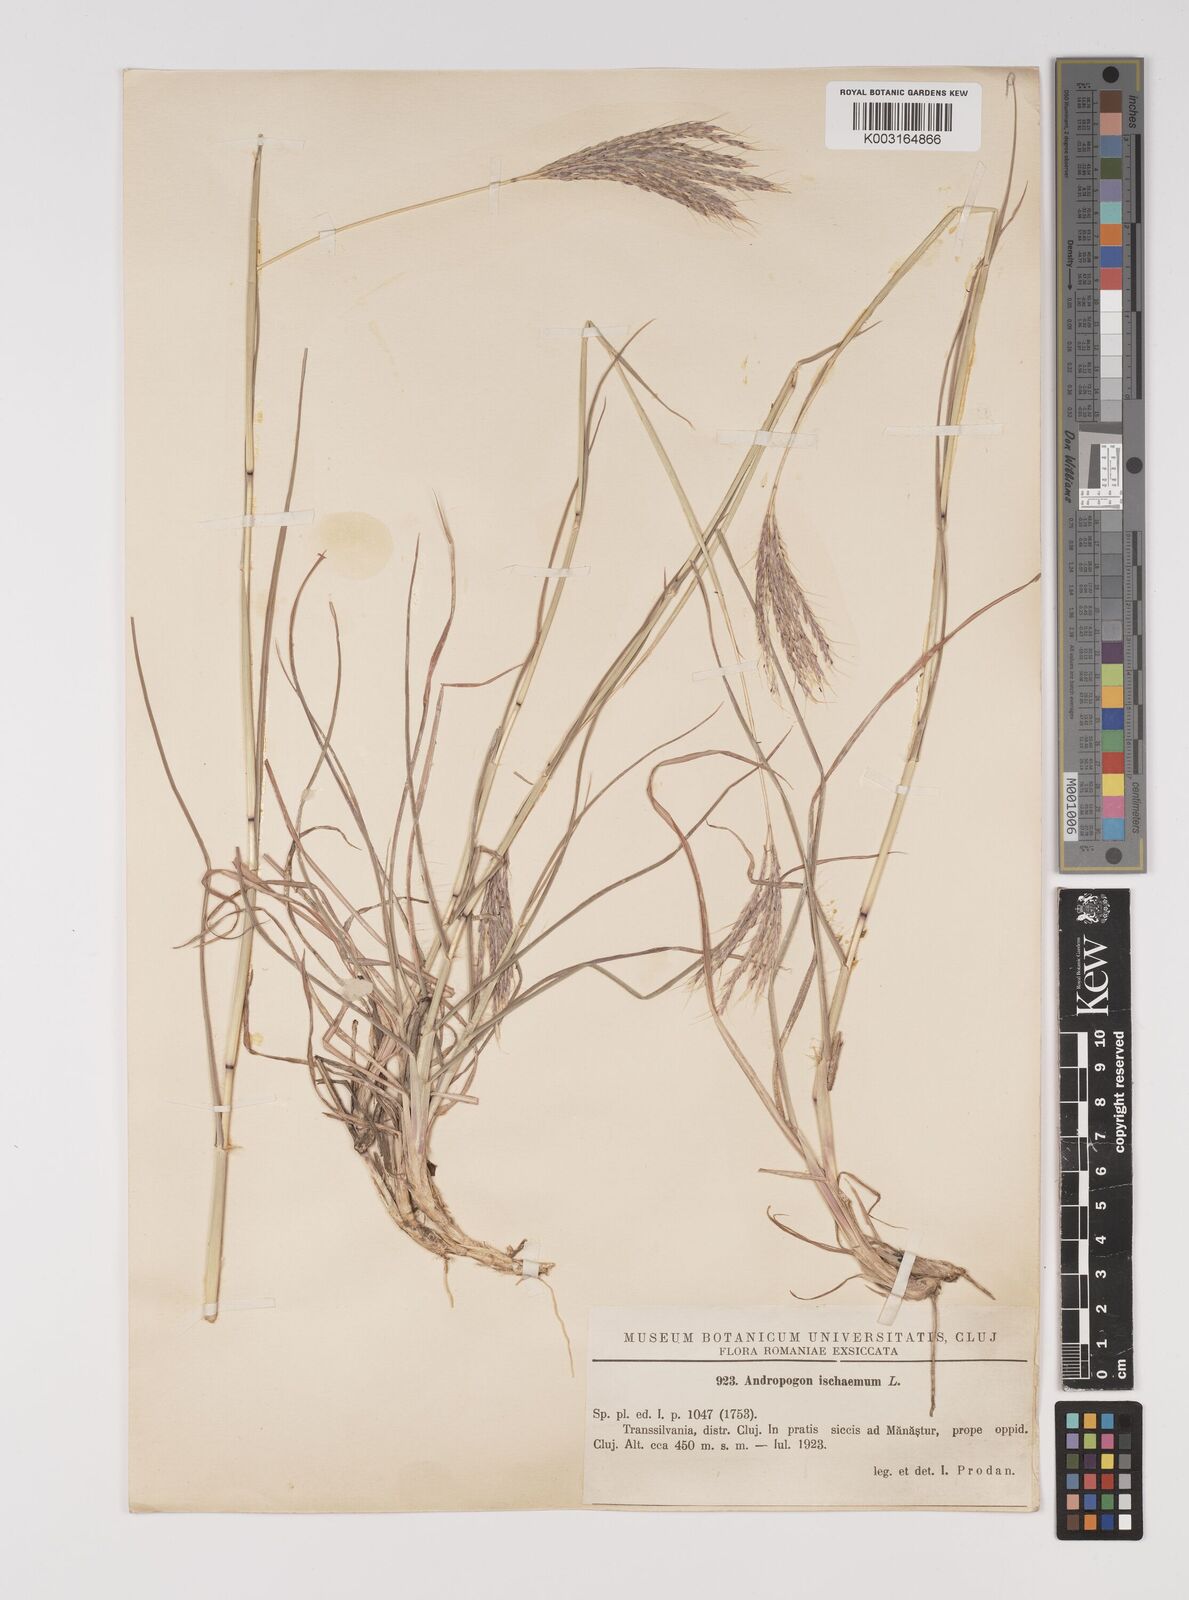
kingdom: Plantae
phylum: Tracheophyta
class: Liliopsida
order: Poales
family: Poaceae
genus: Bothriochloa
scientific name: Bothriochloa ischaemum
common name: Yellow bluestem
